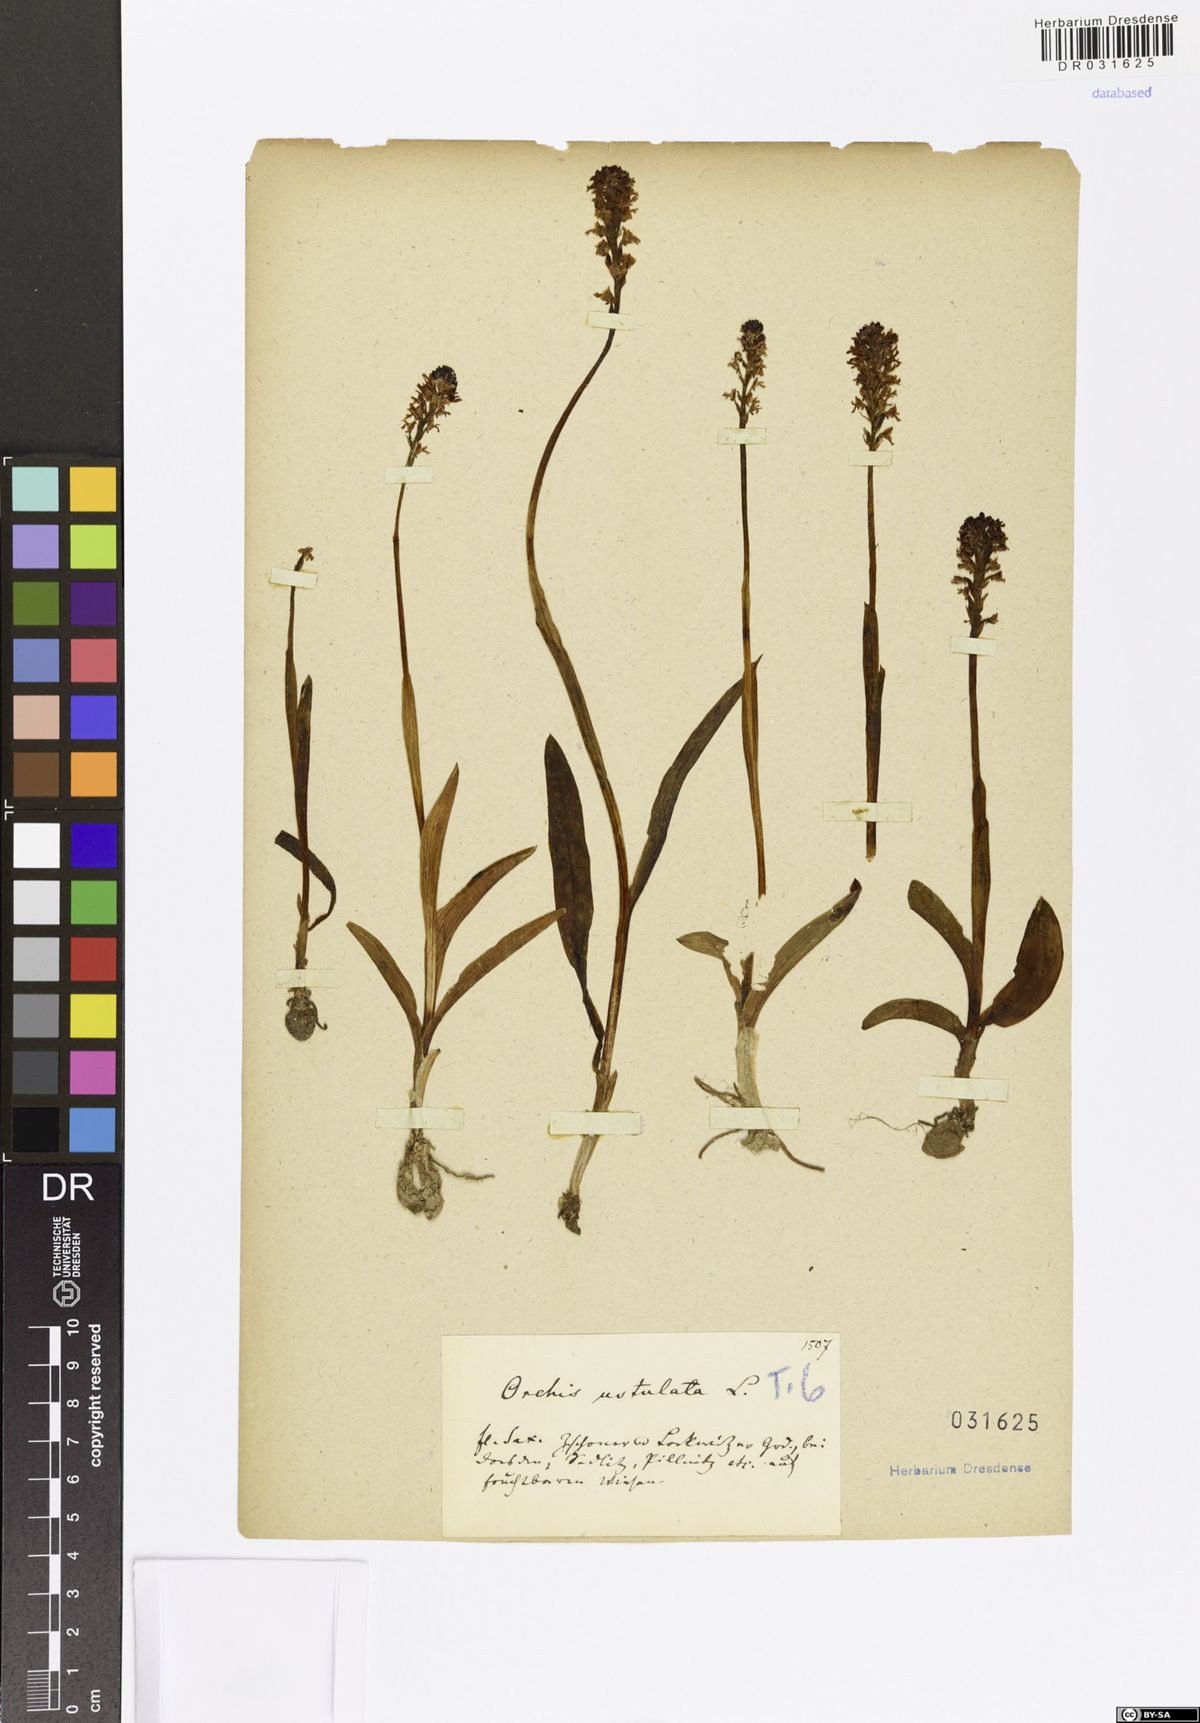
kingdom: Plantae
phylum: Tracheophyta
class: Liliopsida
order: Asparagales
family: Orchidaceae
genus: Neotinea
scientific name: Neotinea ustulata
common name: Burnt orchid
